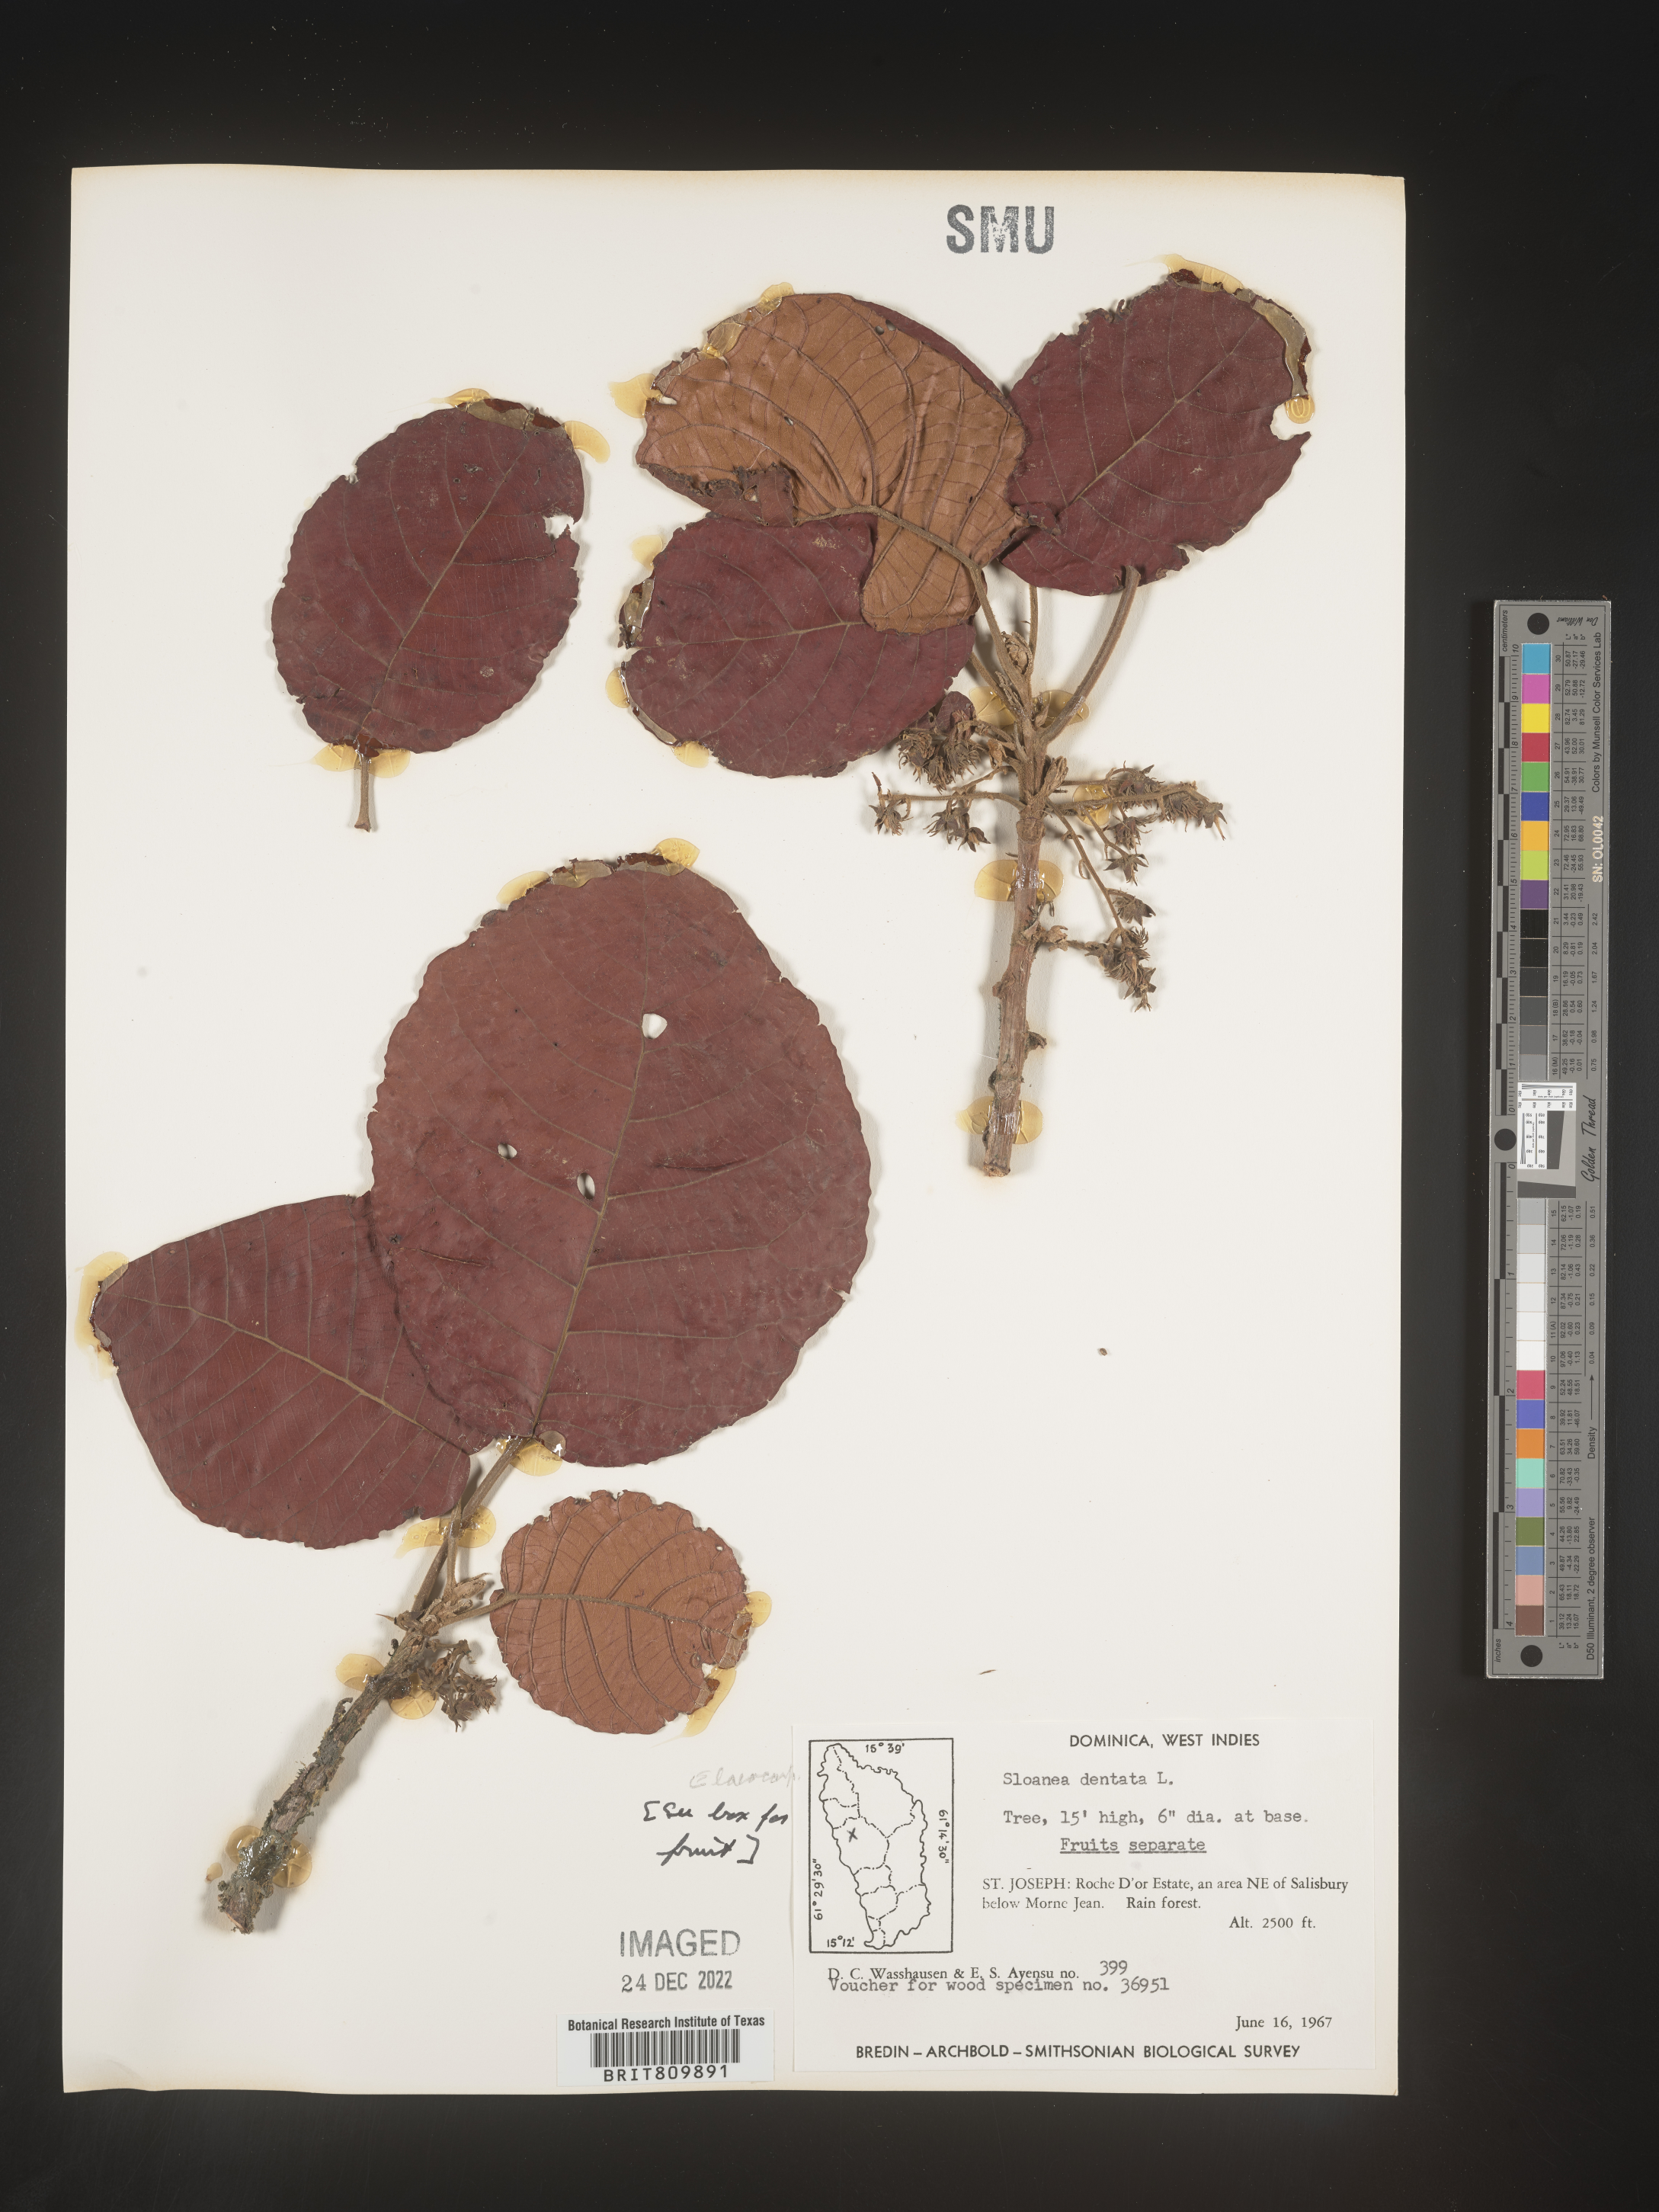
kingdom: Plantae
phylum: Tracheophyta
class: Magnoliopsida
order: Oxalidales
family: Elaeocarpaceae
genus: Sloanea
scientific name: Sloanea
